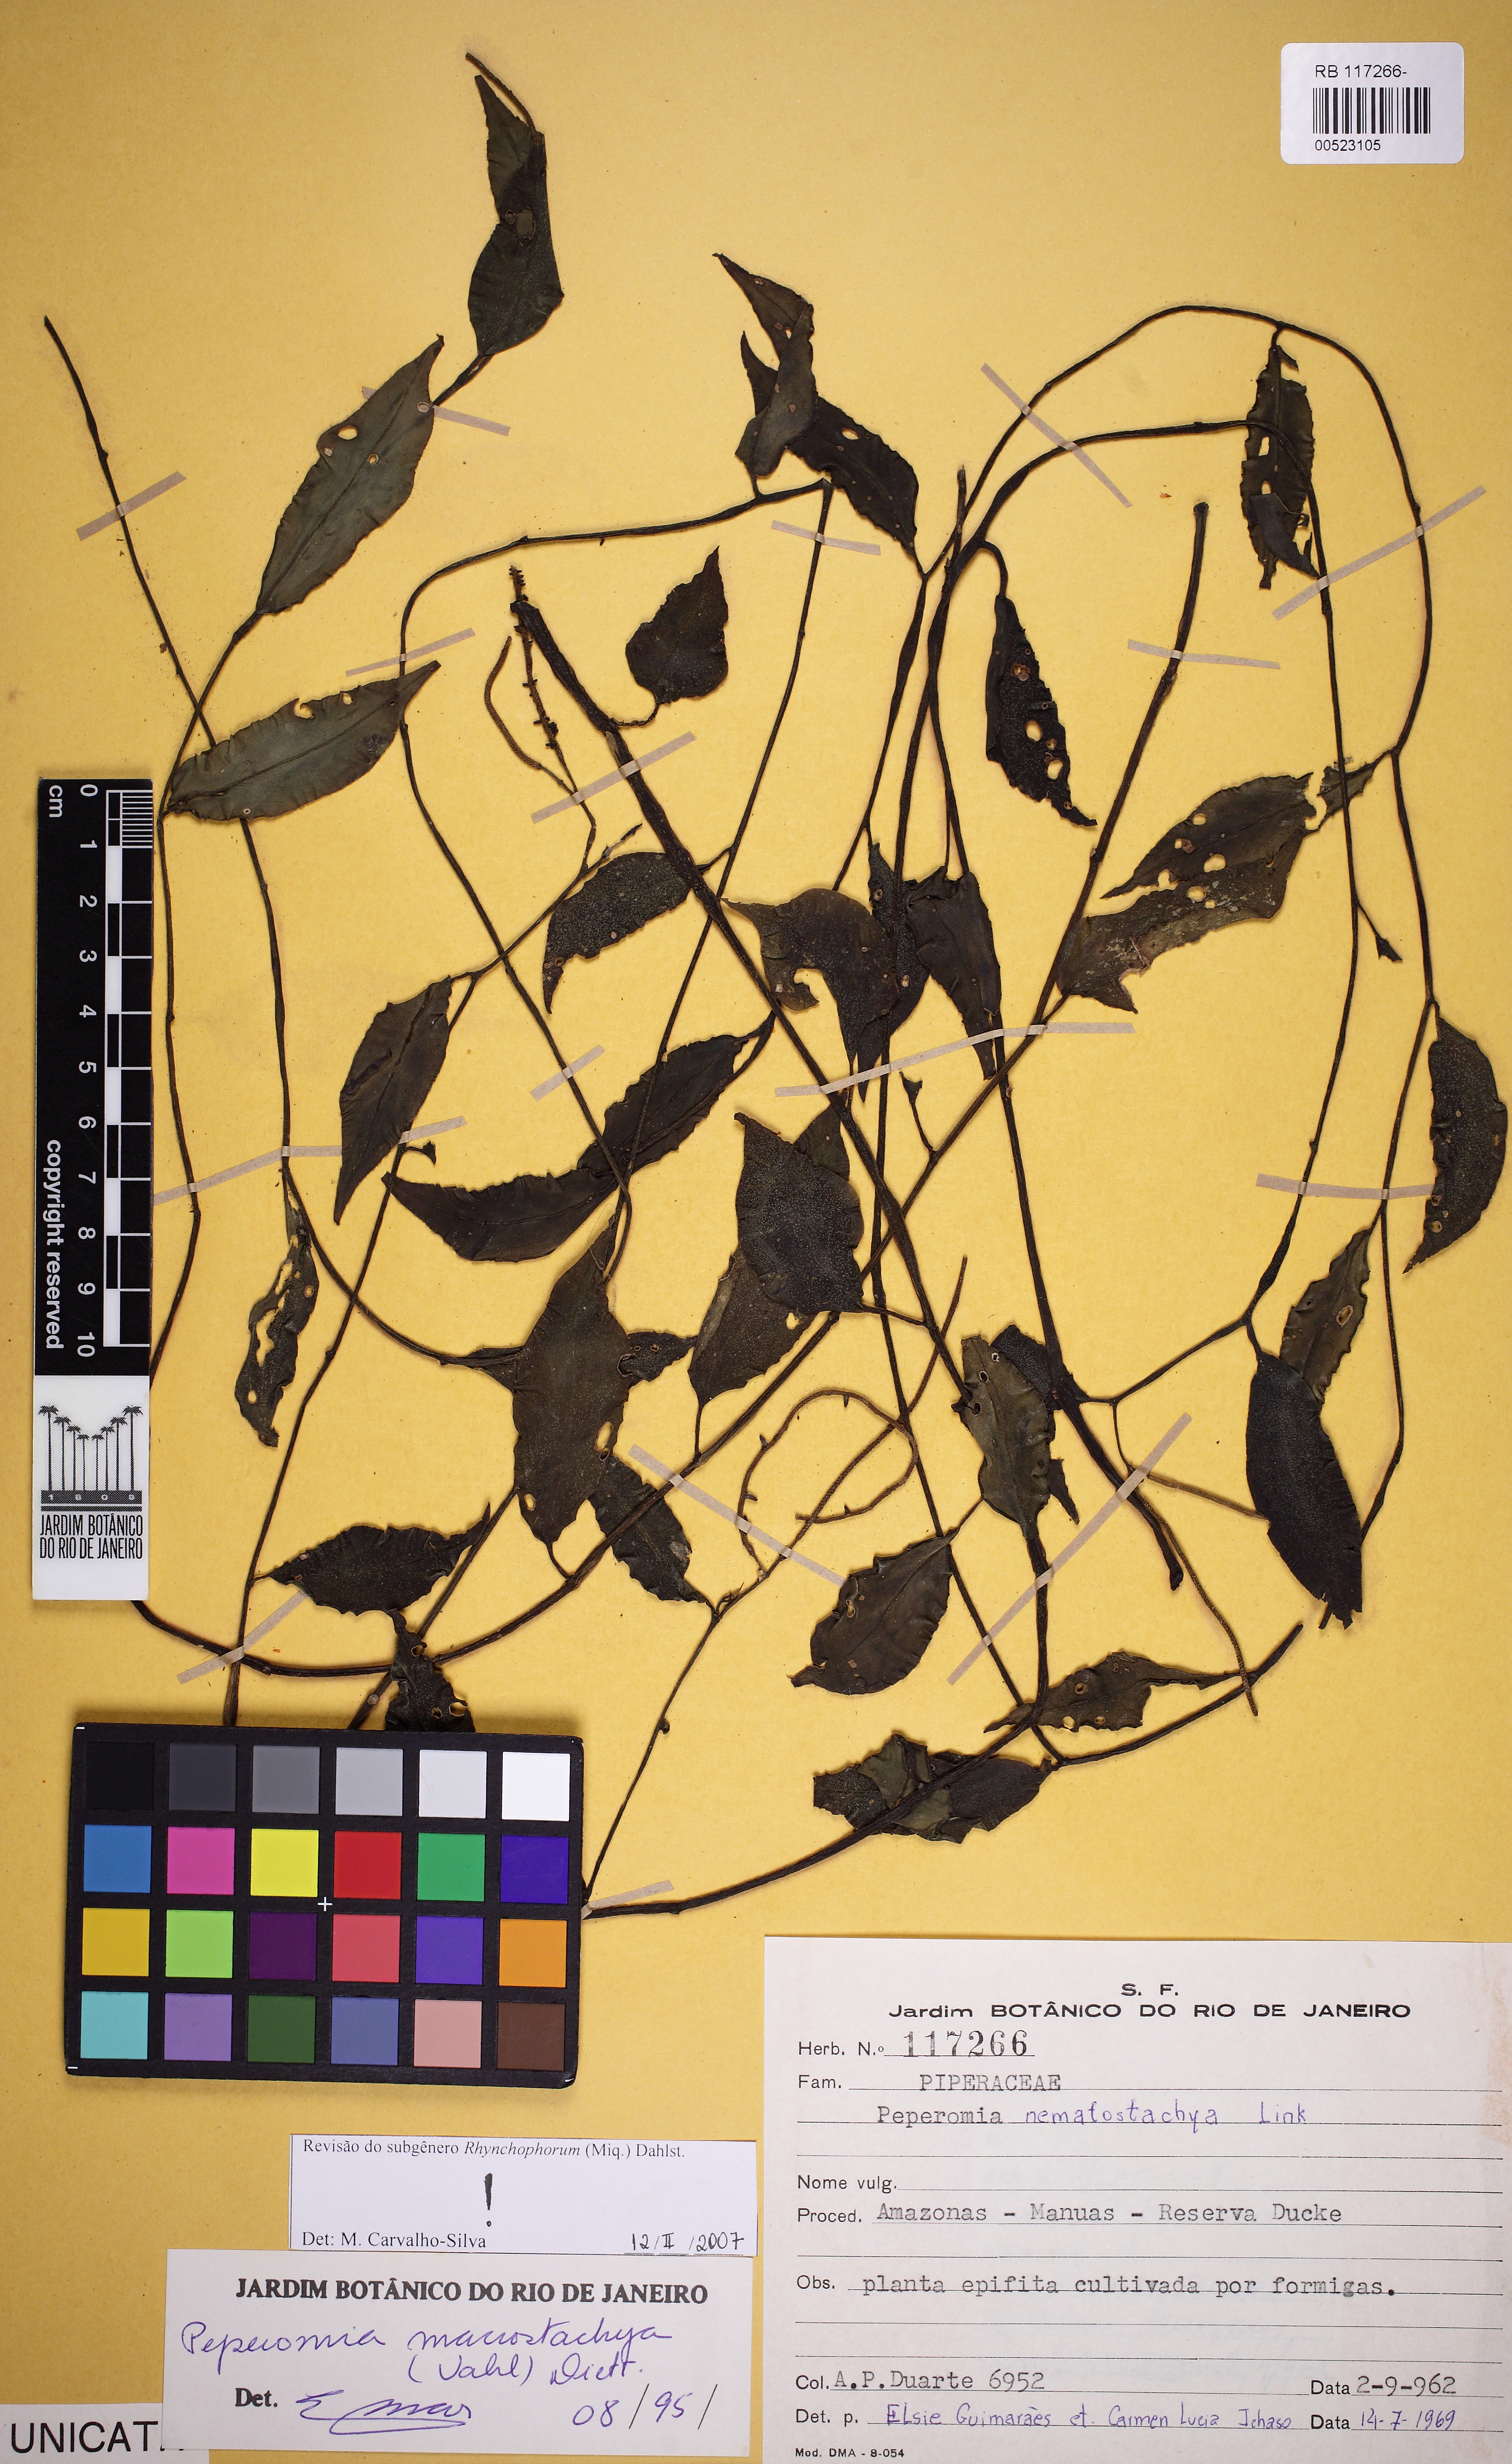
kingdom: Plantae
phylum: Tracheophyta
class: Magnoliopsida
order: Piperales
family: Piperaceae
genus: Peperomia
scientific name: Peperomia macrostachyos
